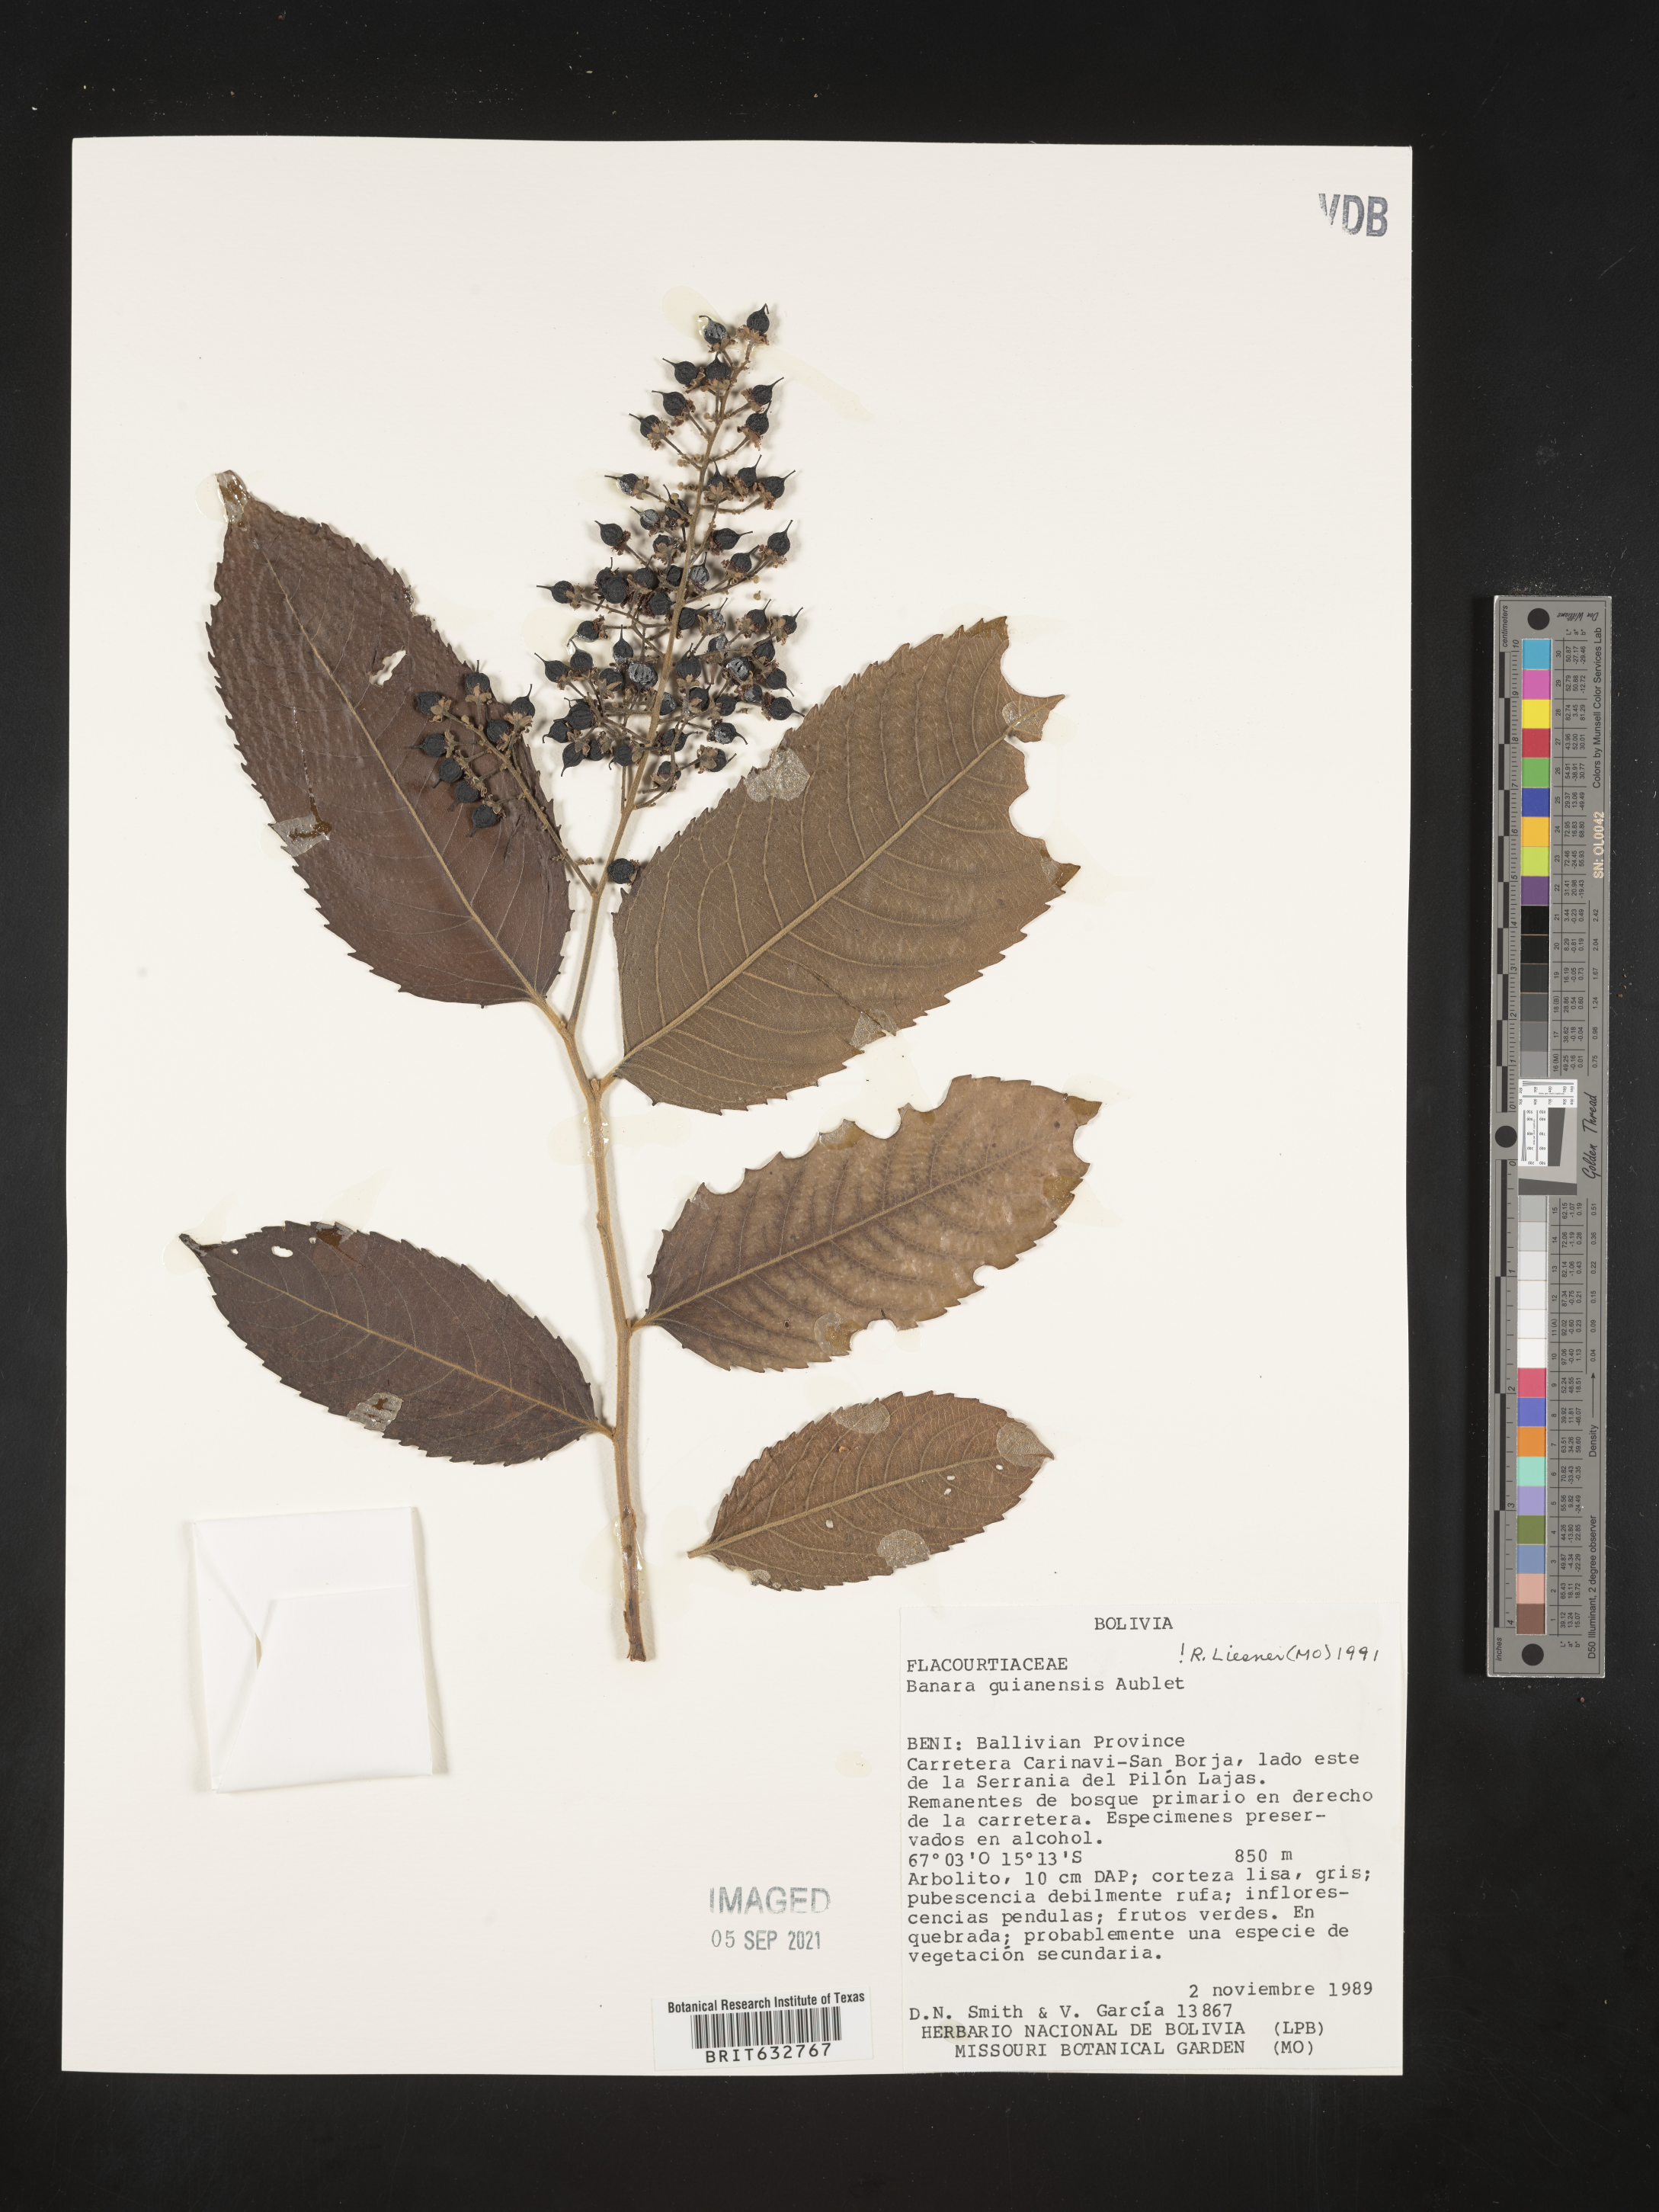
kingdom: Plantae
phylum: Tracheophyta
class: Magnoliopsida
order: Malpighiales
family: Salicaceae
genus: Banara
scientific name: Banara
